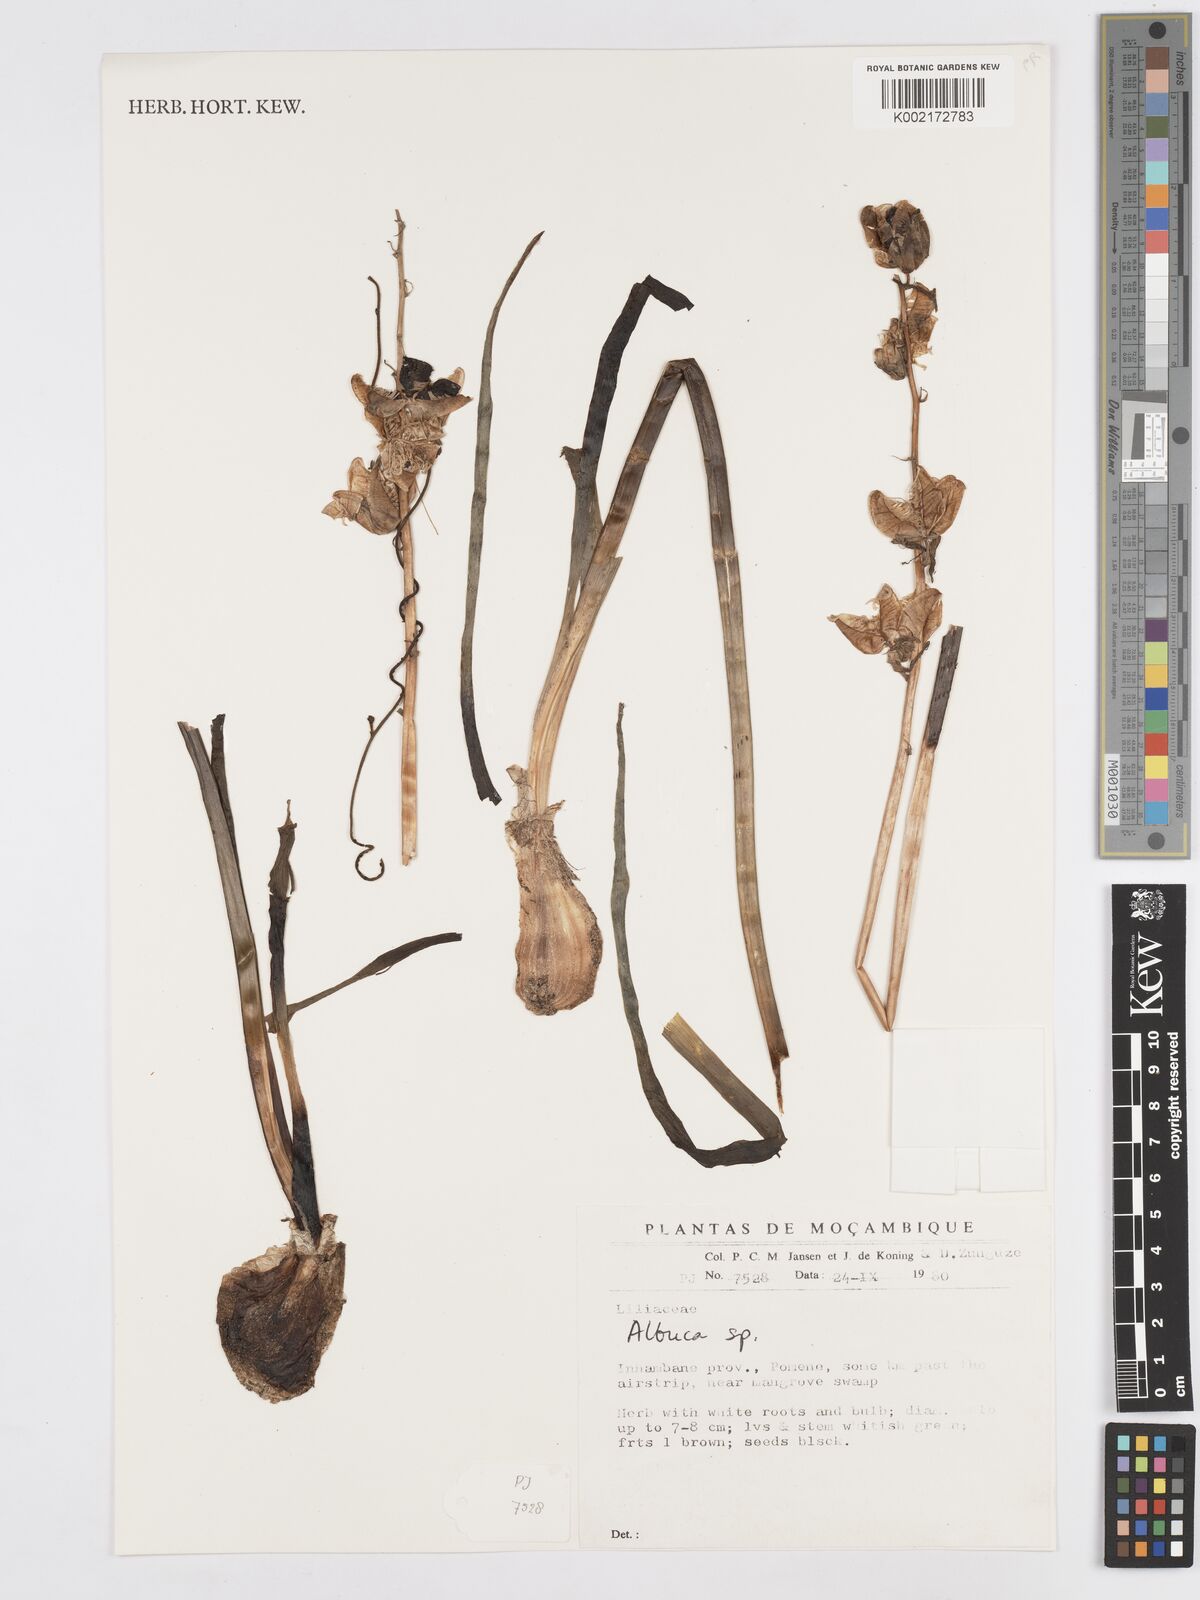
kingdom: Plantae
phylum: Tracheophyta
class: Liliopsida
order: Asparagales
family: Asparagaceae
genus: Albuca
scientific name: Albuca
